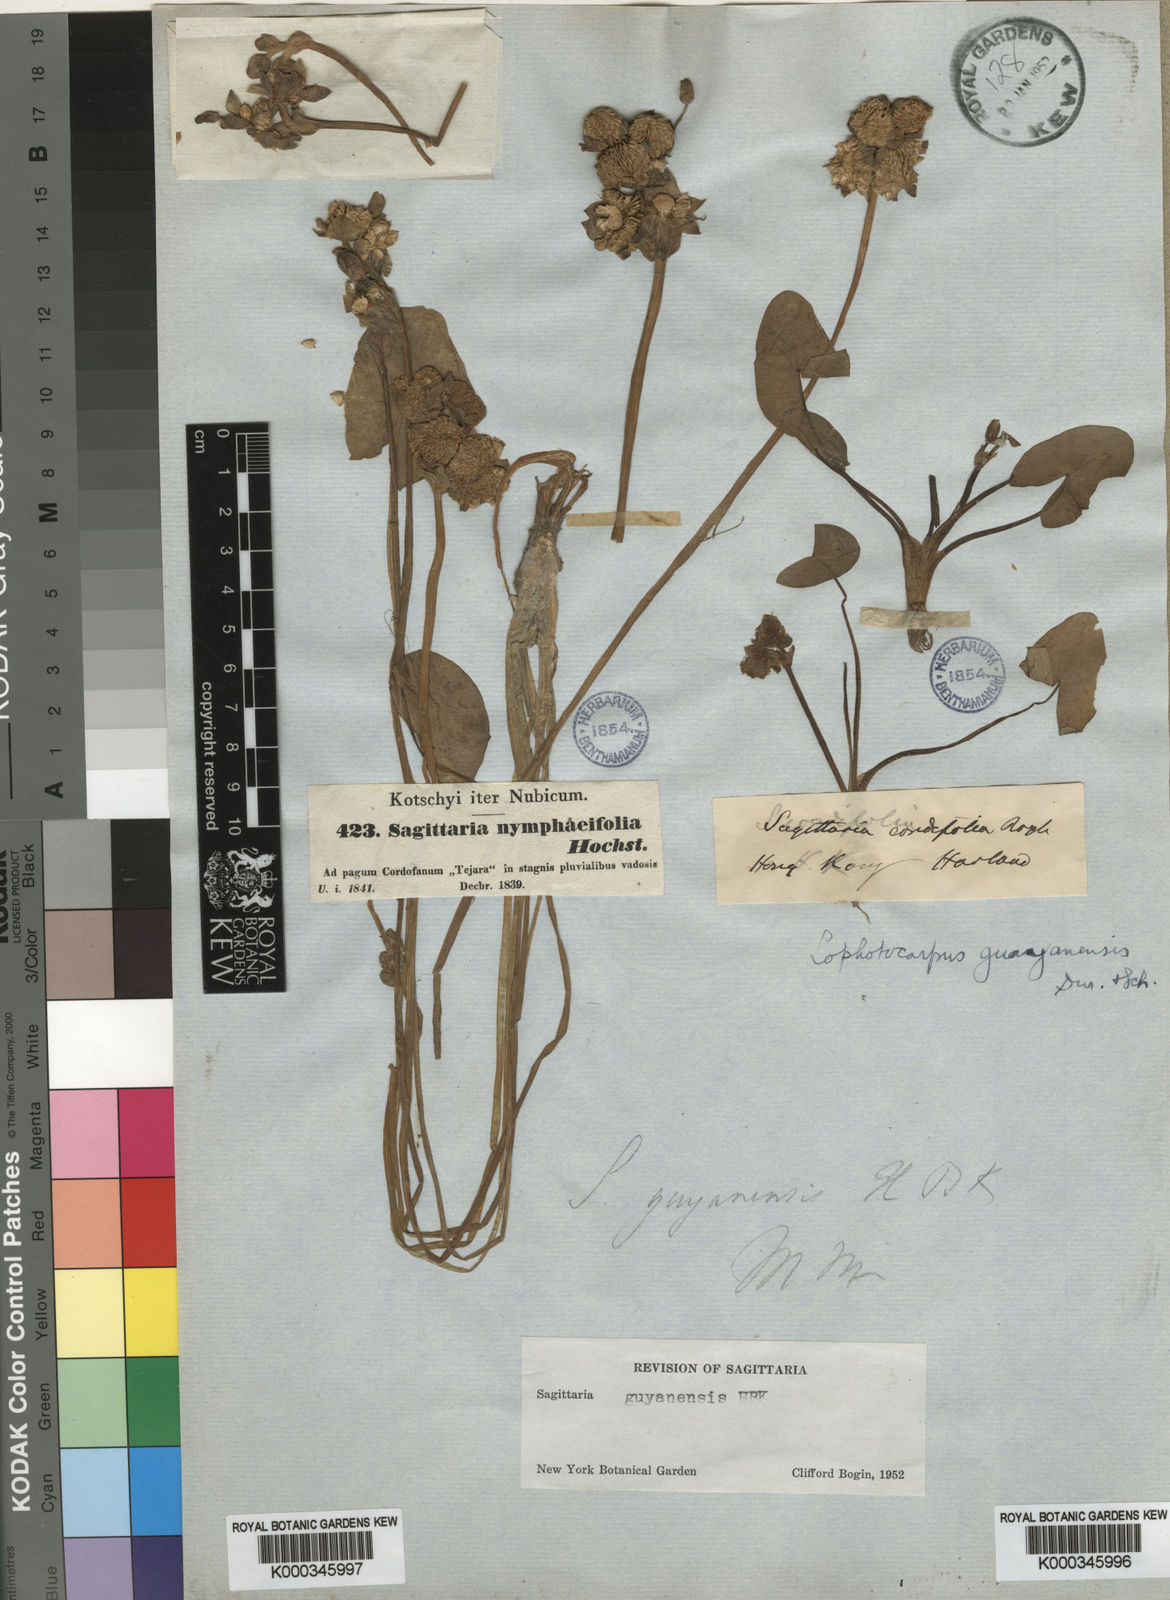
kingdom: Plantae
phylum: Tracheophyta
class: Liliopsida
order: Alismatales
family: Alismataceae
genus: Sagittaria
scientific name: Sagittaria
